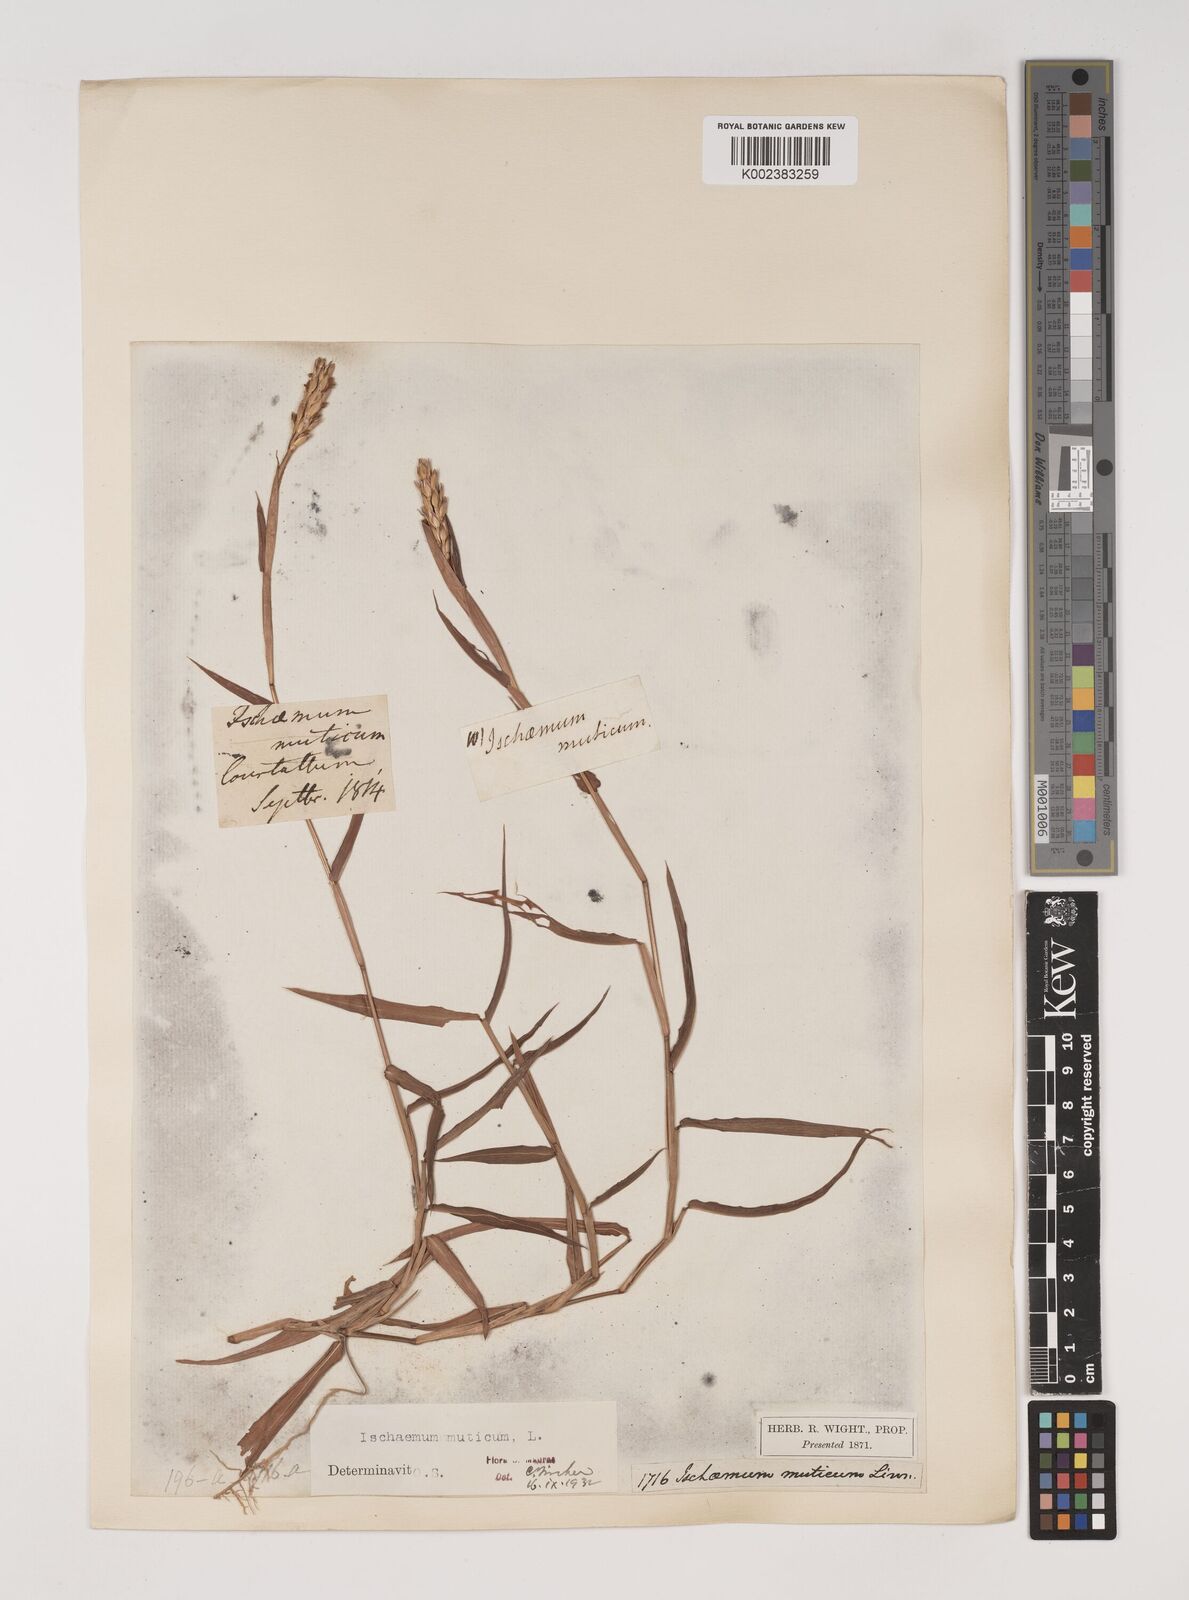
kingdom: Plantae
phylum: Tracheophyta
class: Liliopsida
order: Poales
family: Poaceae
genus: Ischaemum
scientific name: Ischaemum muticum
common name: Drought grass
